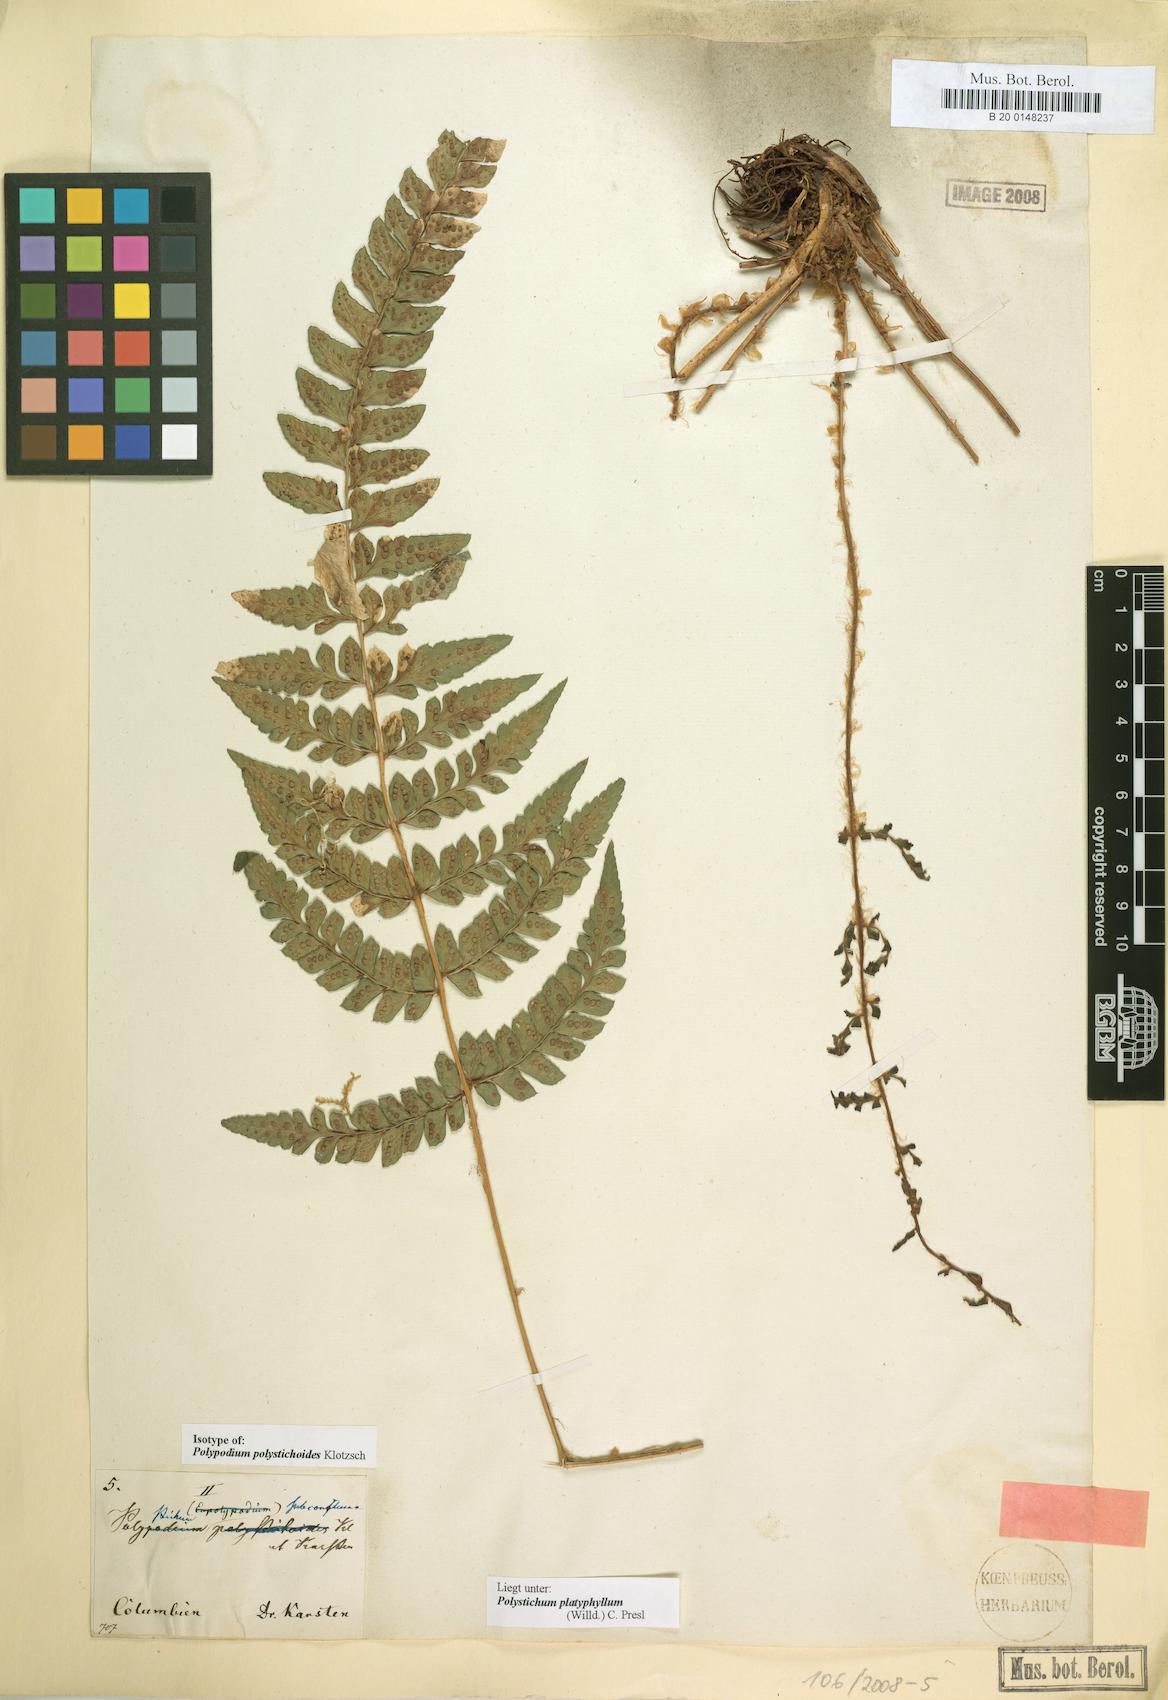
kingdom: Plantae
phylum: Tracheophyta
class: Polypodiopsida
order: Polypodiales
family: Dryopteridaceae
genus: Polystichum
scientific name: Polystichum platyphyllum
